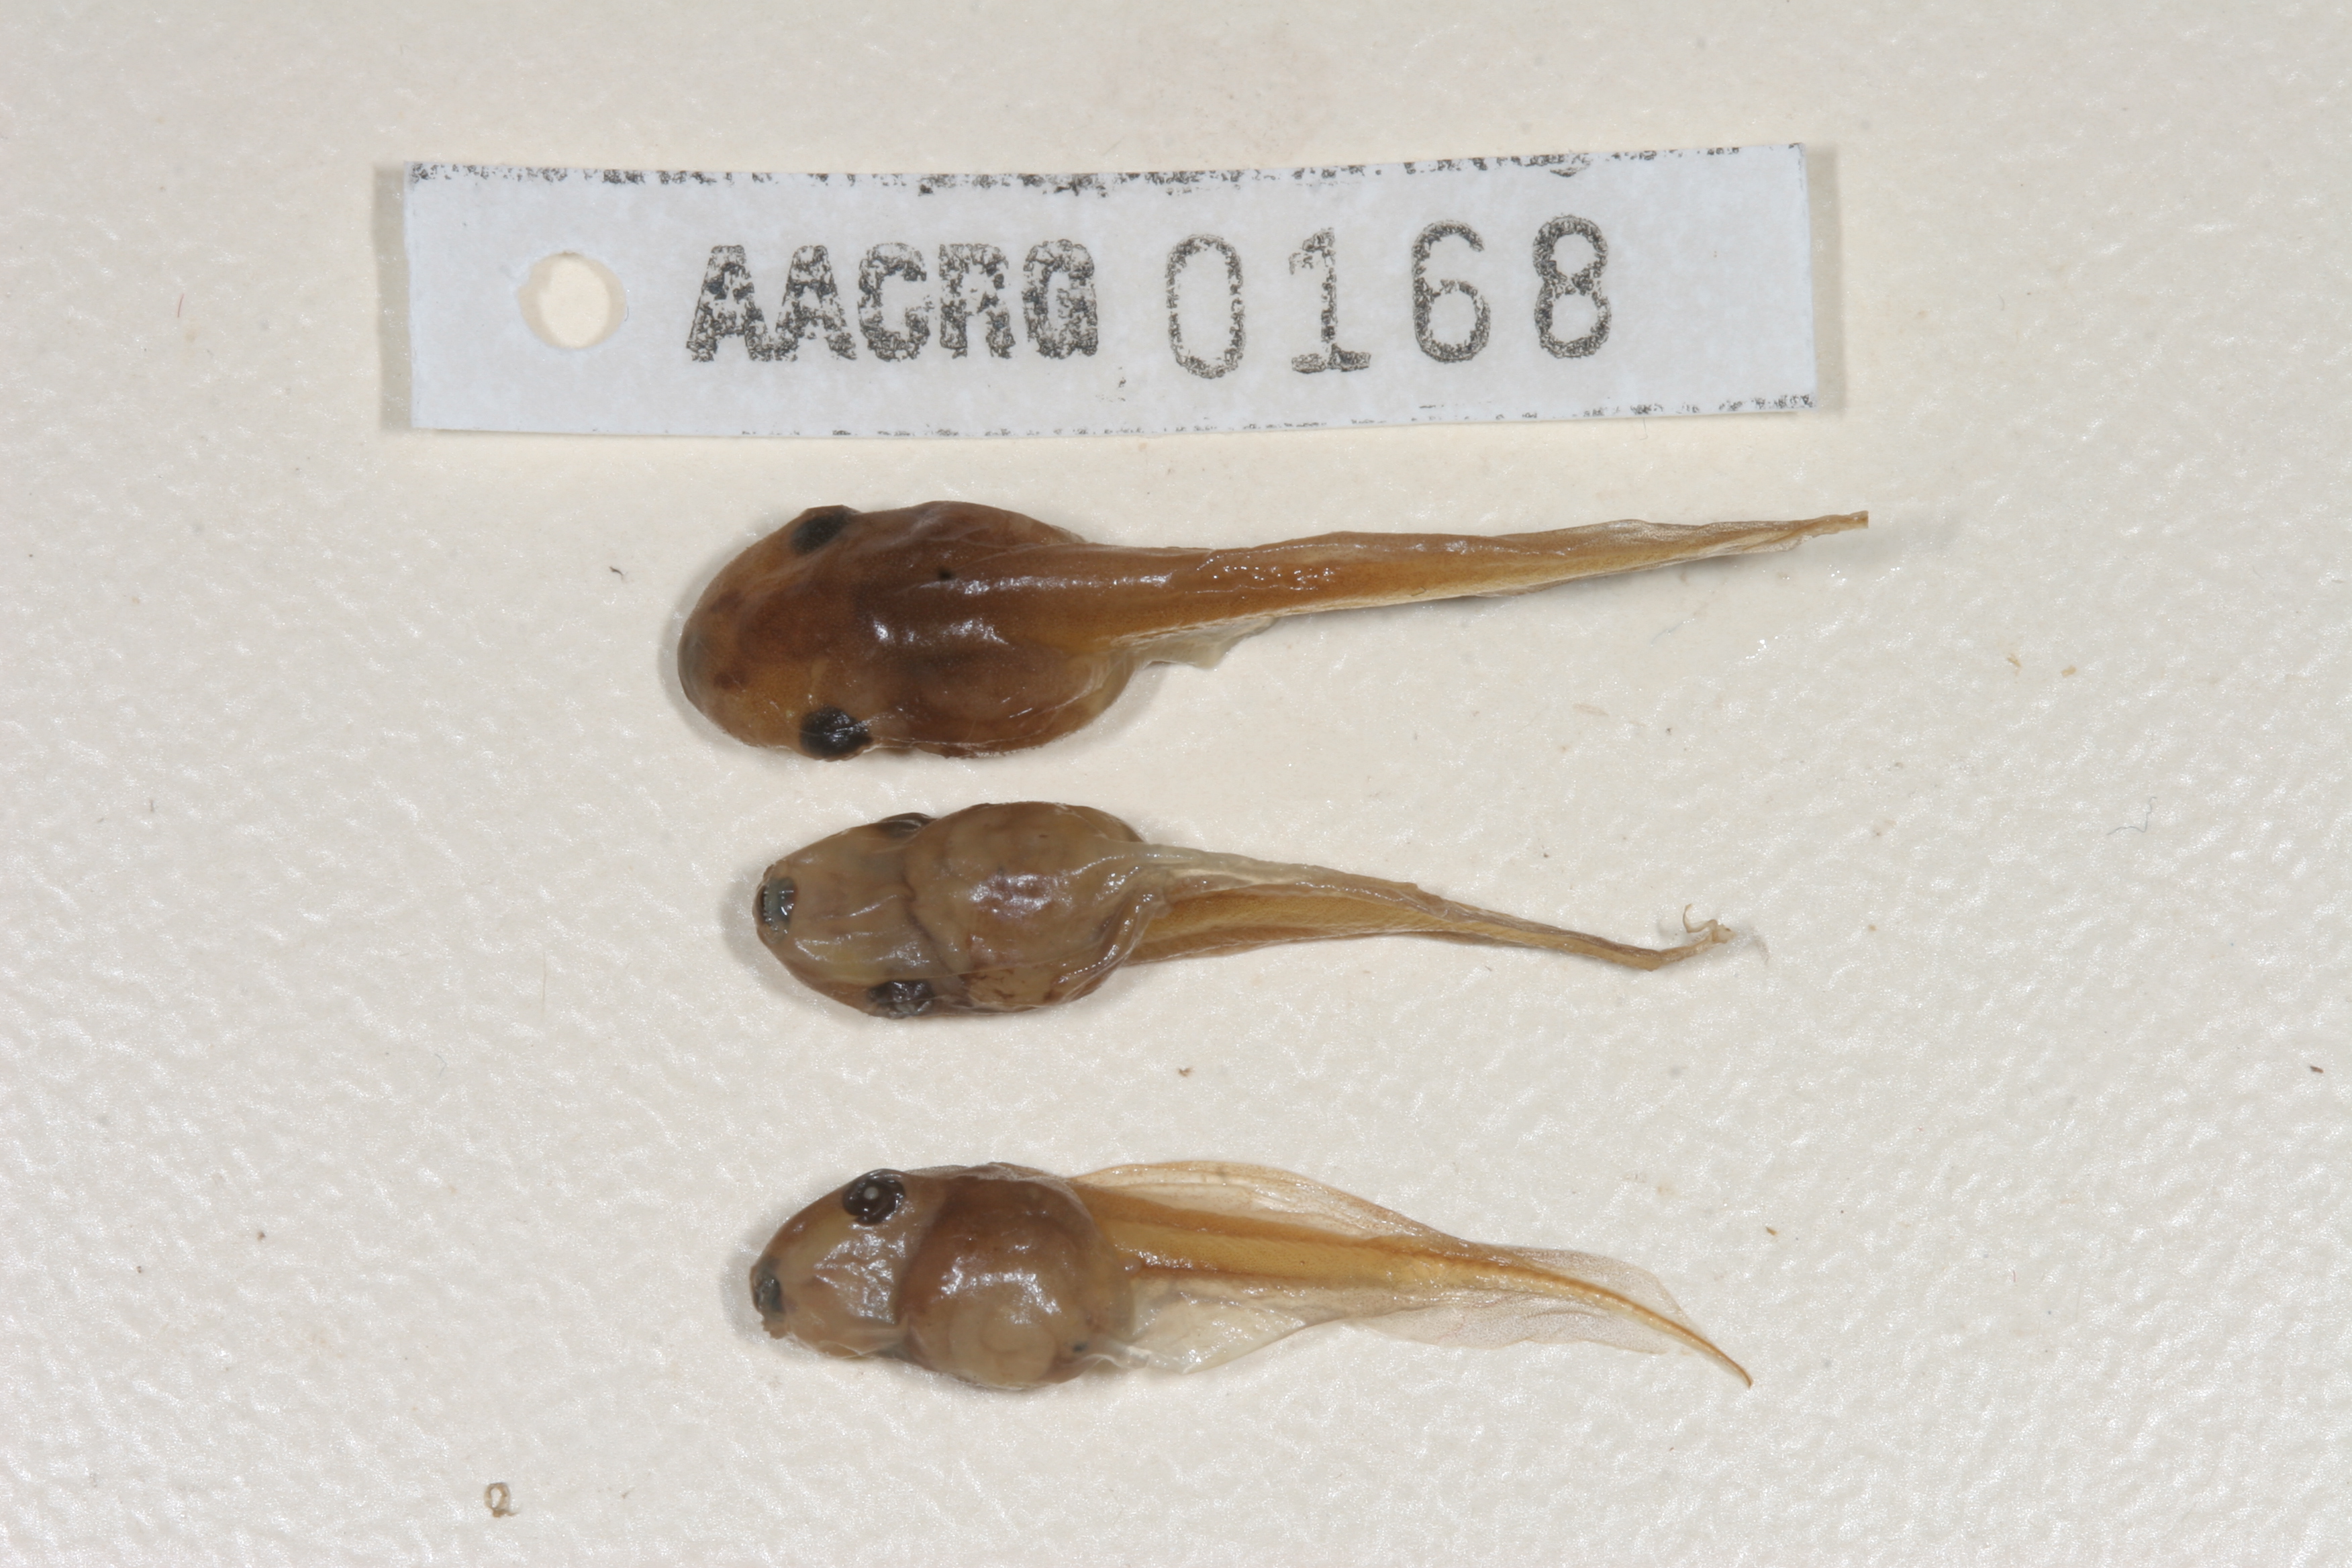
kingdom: Animalia
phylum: Chordata
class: Amphibia
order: Anura
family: Hyperoliidae
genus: Semnodactylus
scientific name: Semnodactylus wealii
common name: Weal's frog
